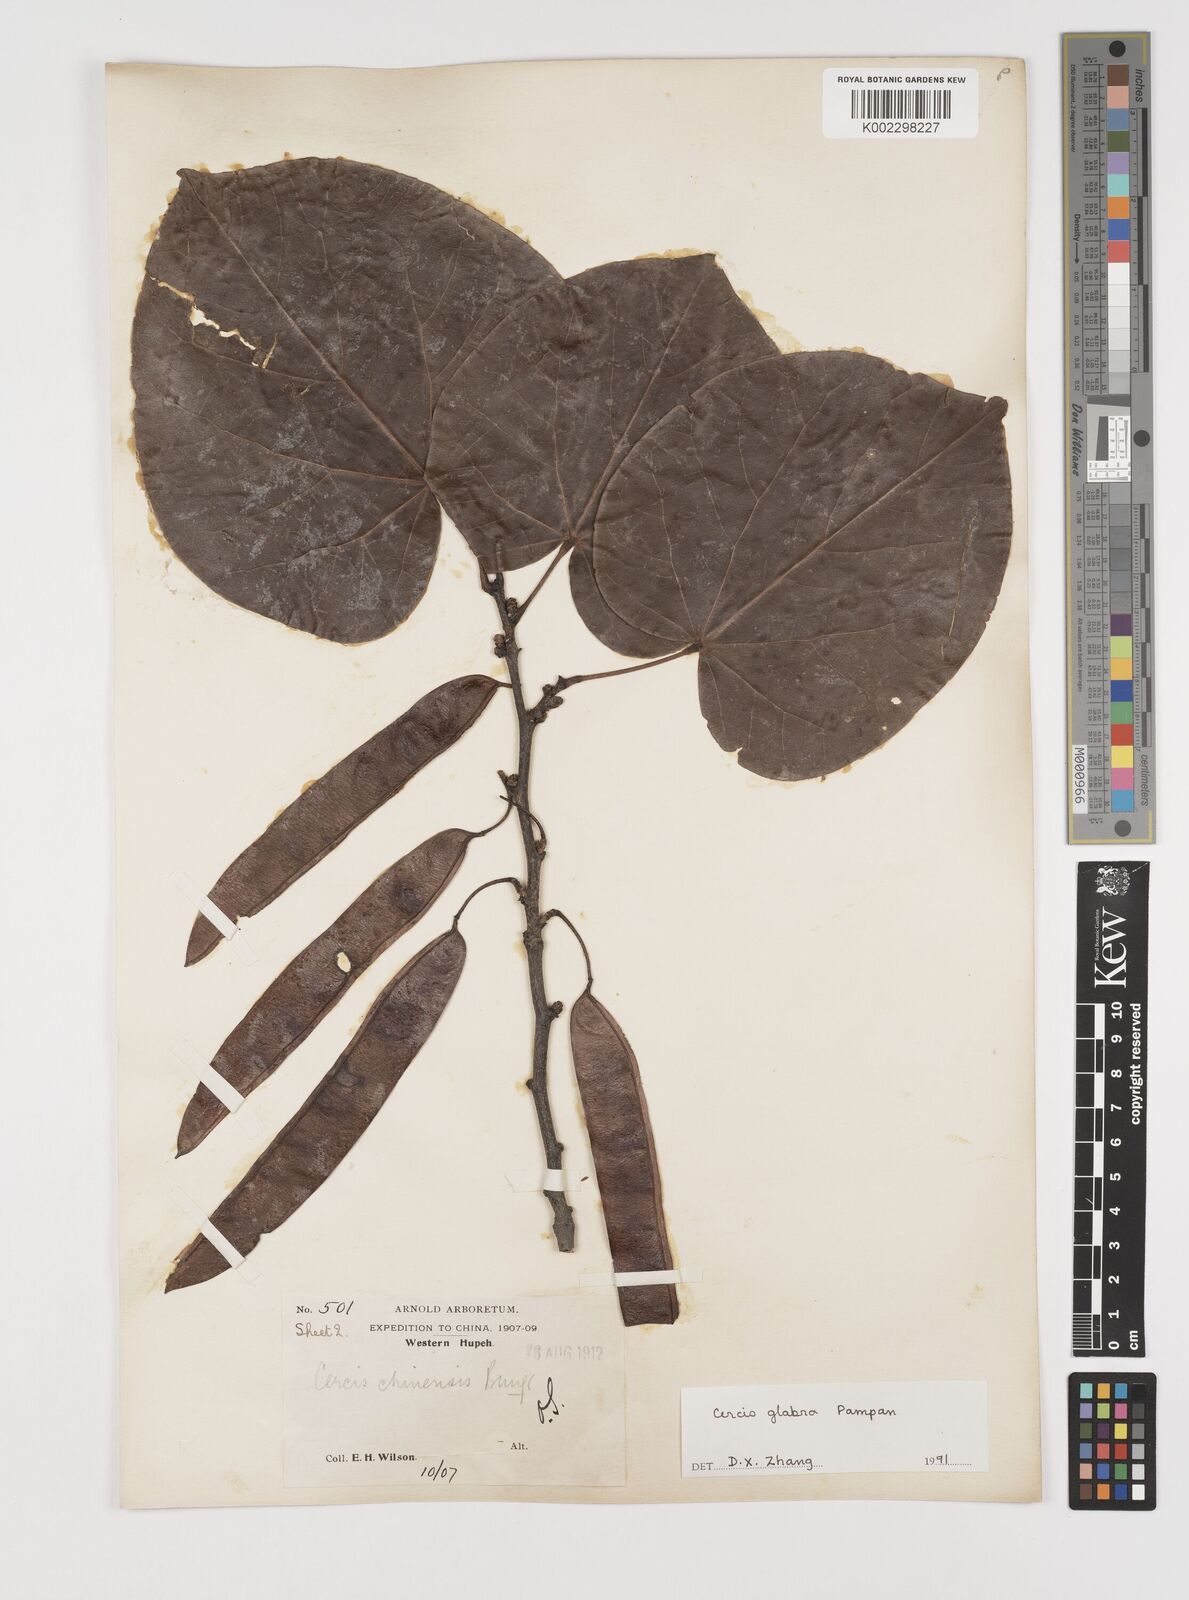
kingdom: Plantae
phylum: Tracheophyta
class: Magnoliopsida
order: Fabales
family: Fabaceae
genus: Cercis
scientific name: Cercis glabra
